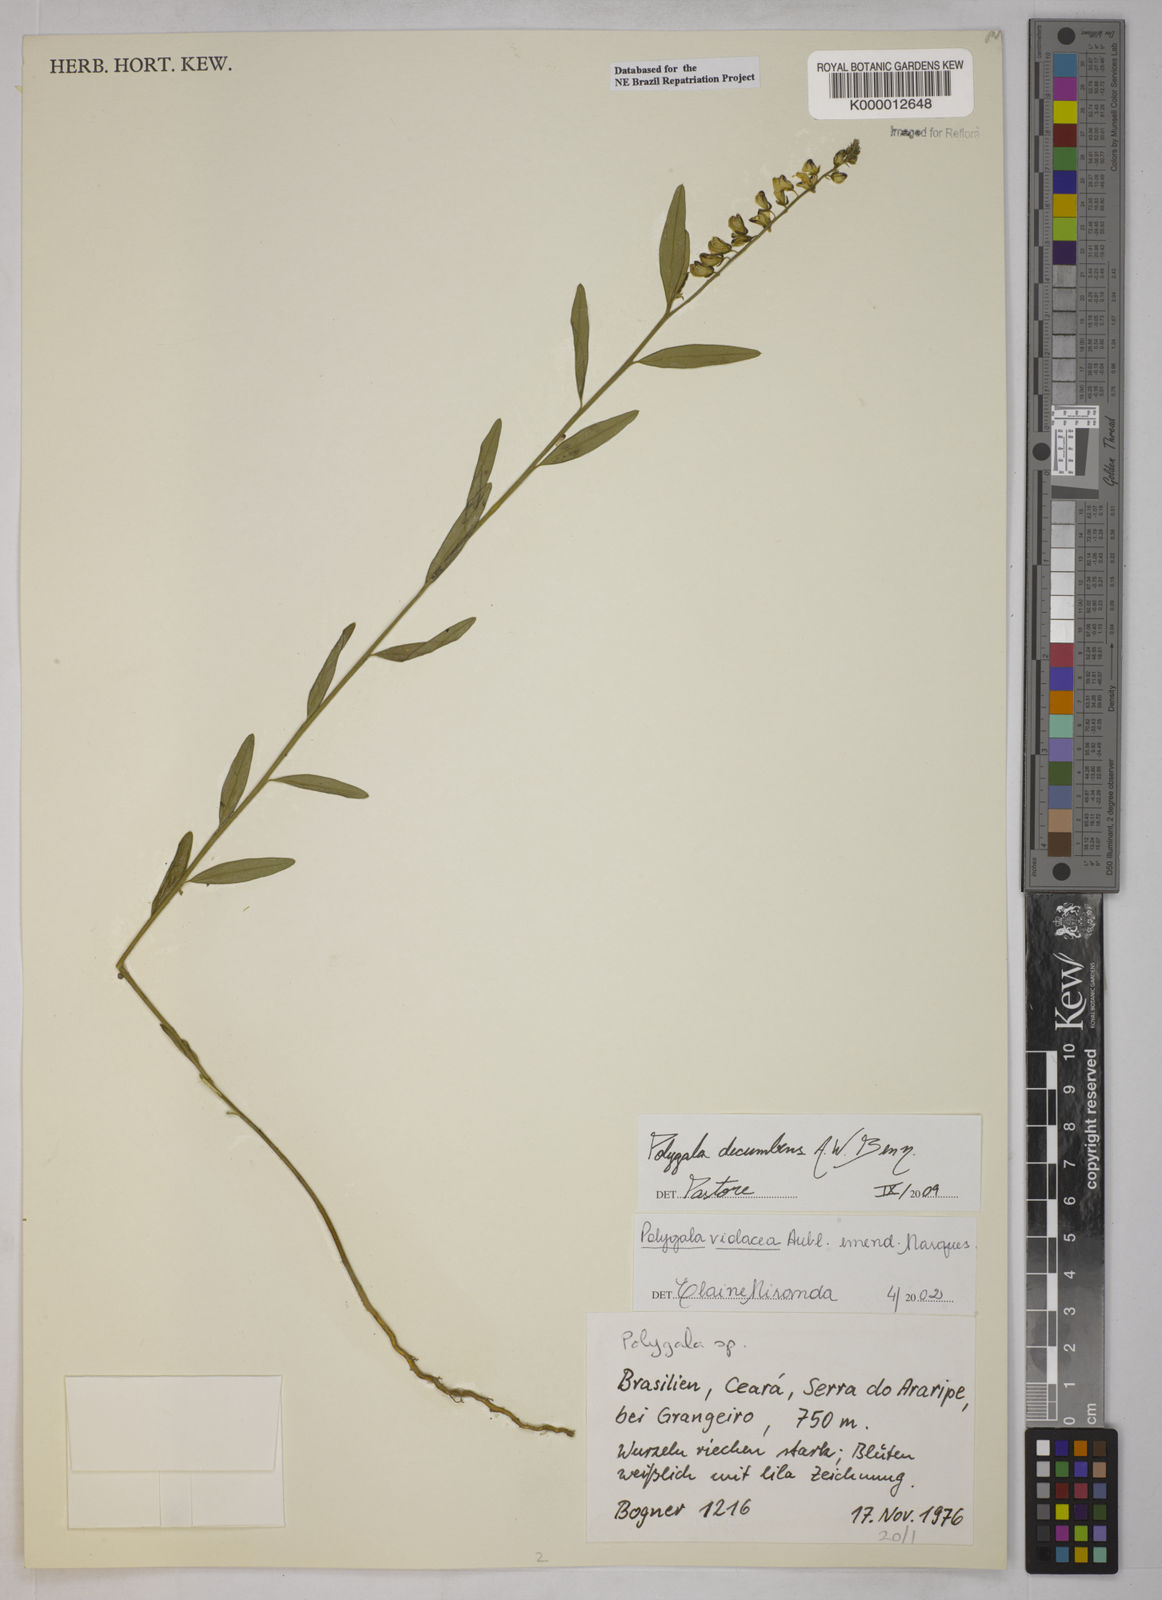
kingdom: Plantae
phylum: Tracheophyta
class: Magnoliopsida
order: Fabales
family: Polygalaceae
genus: Asemeia
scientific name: Asemeia violacea
